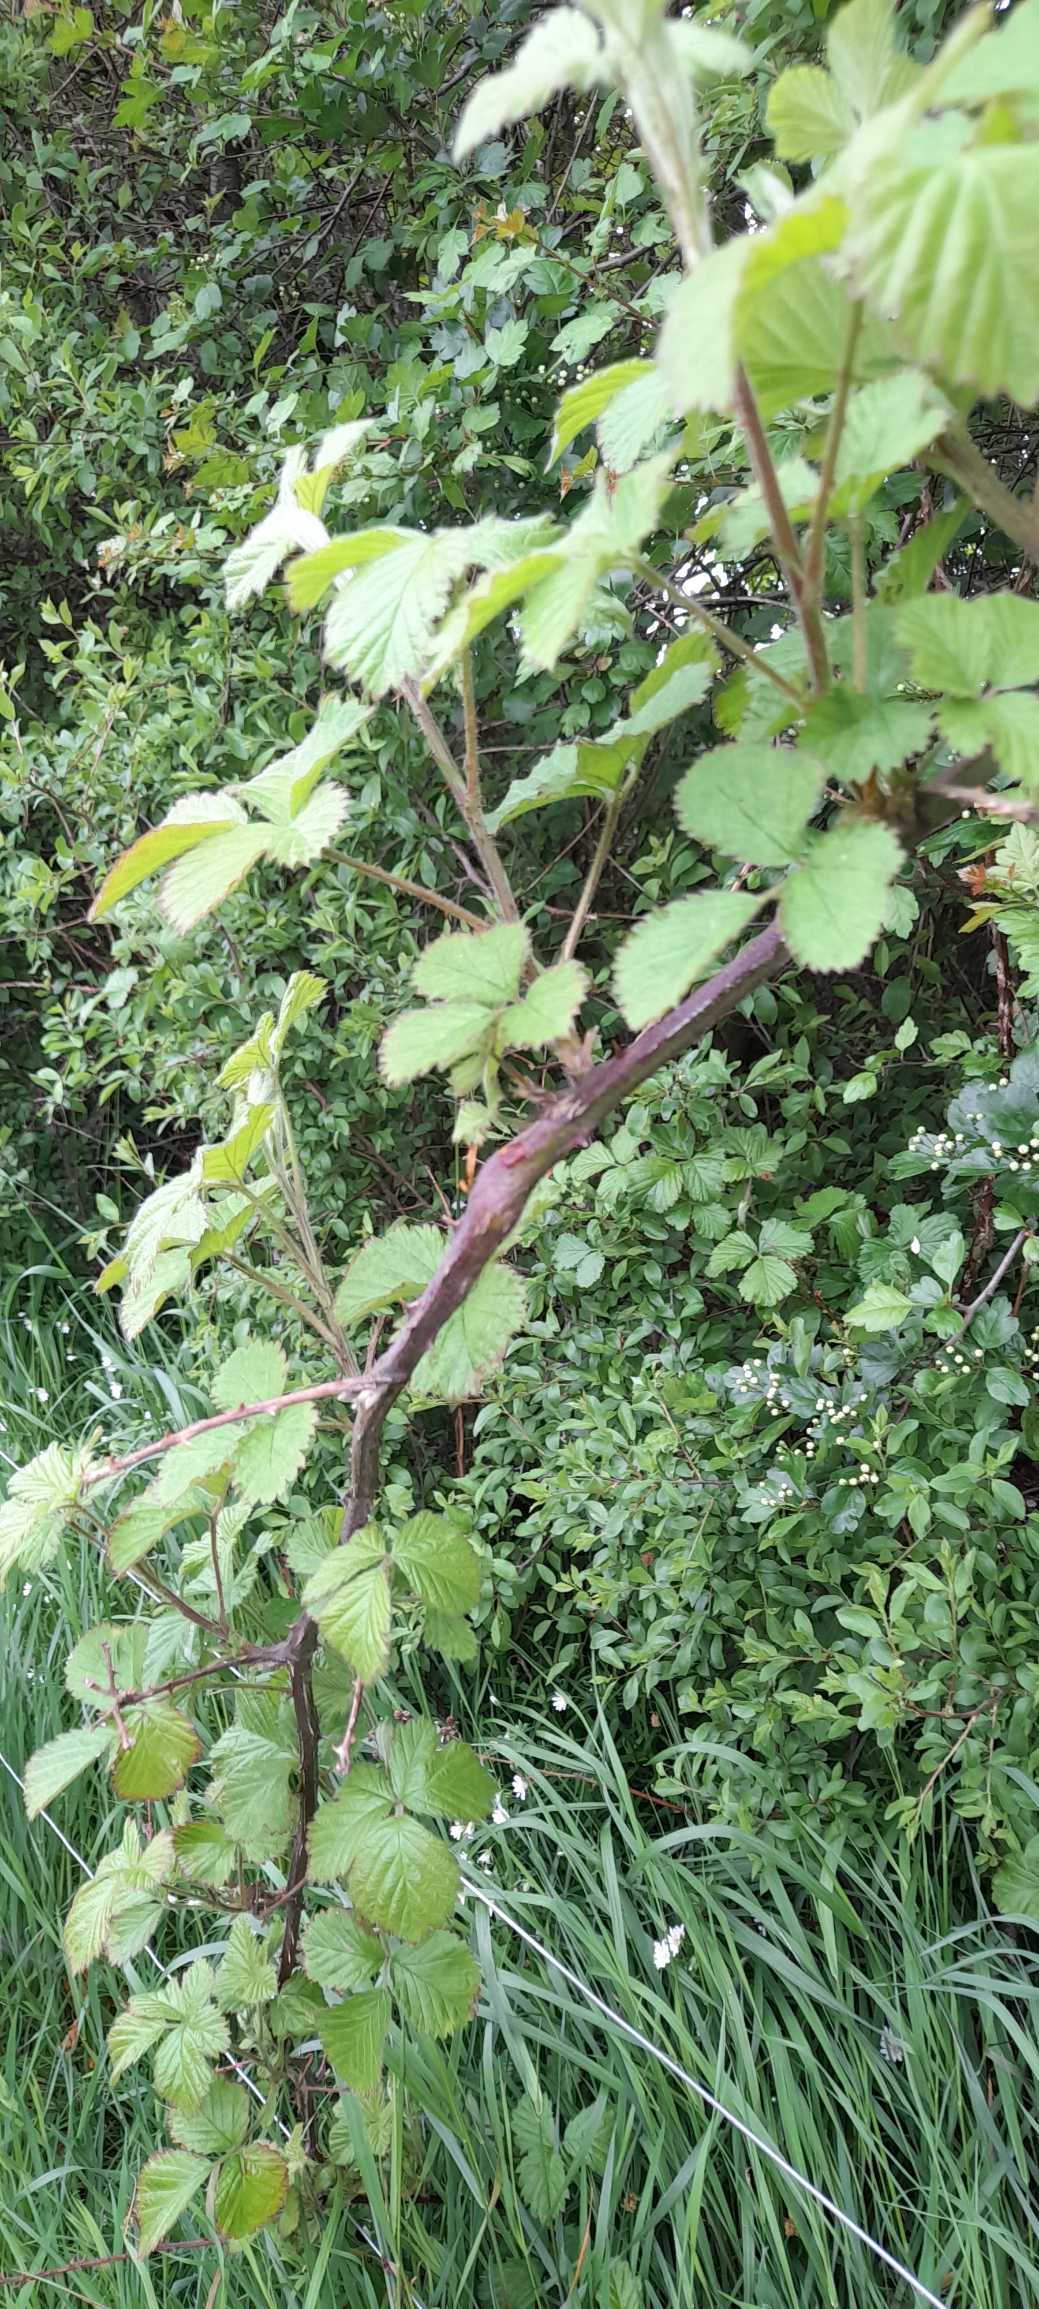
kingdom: Plantae
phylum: Tracheophyta
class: Magnoliopsida
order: Rosales
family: Rosaceae
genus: Rubus
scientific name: Rubus
